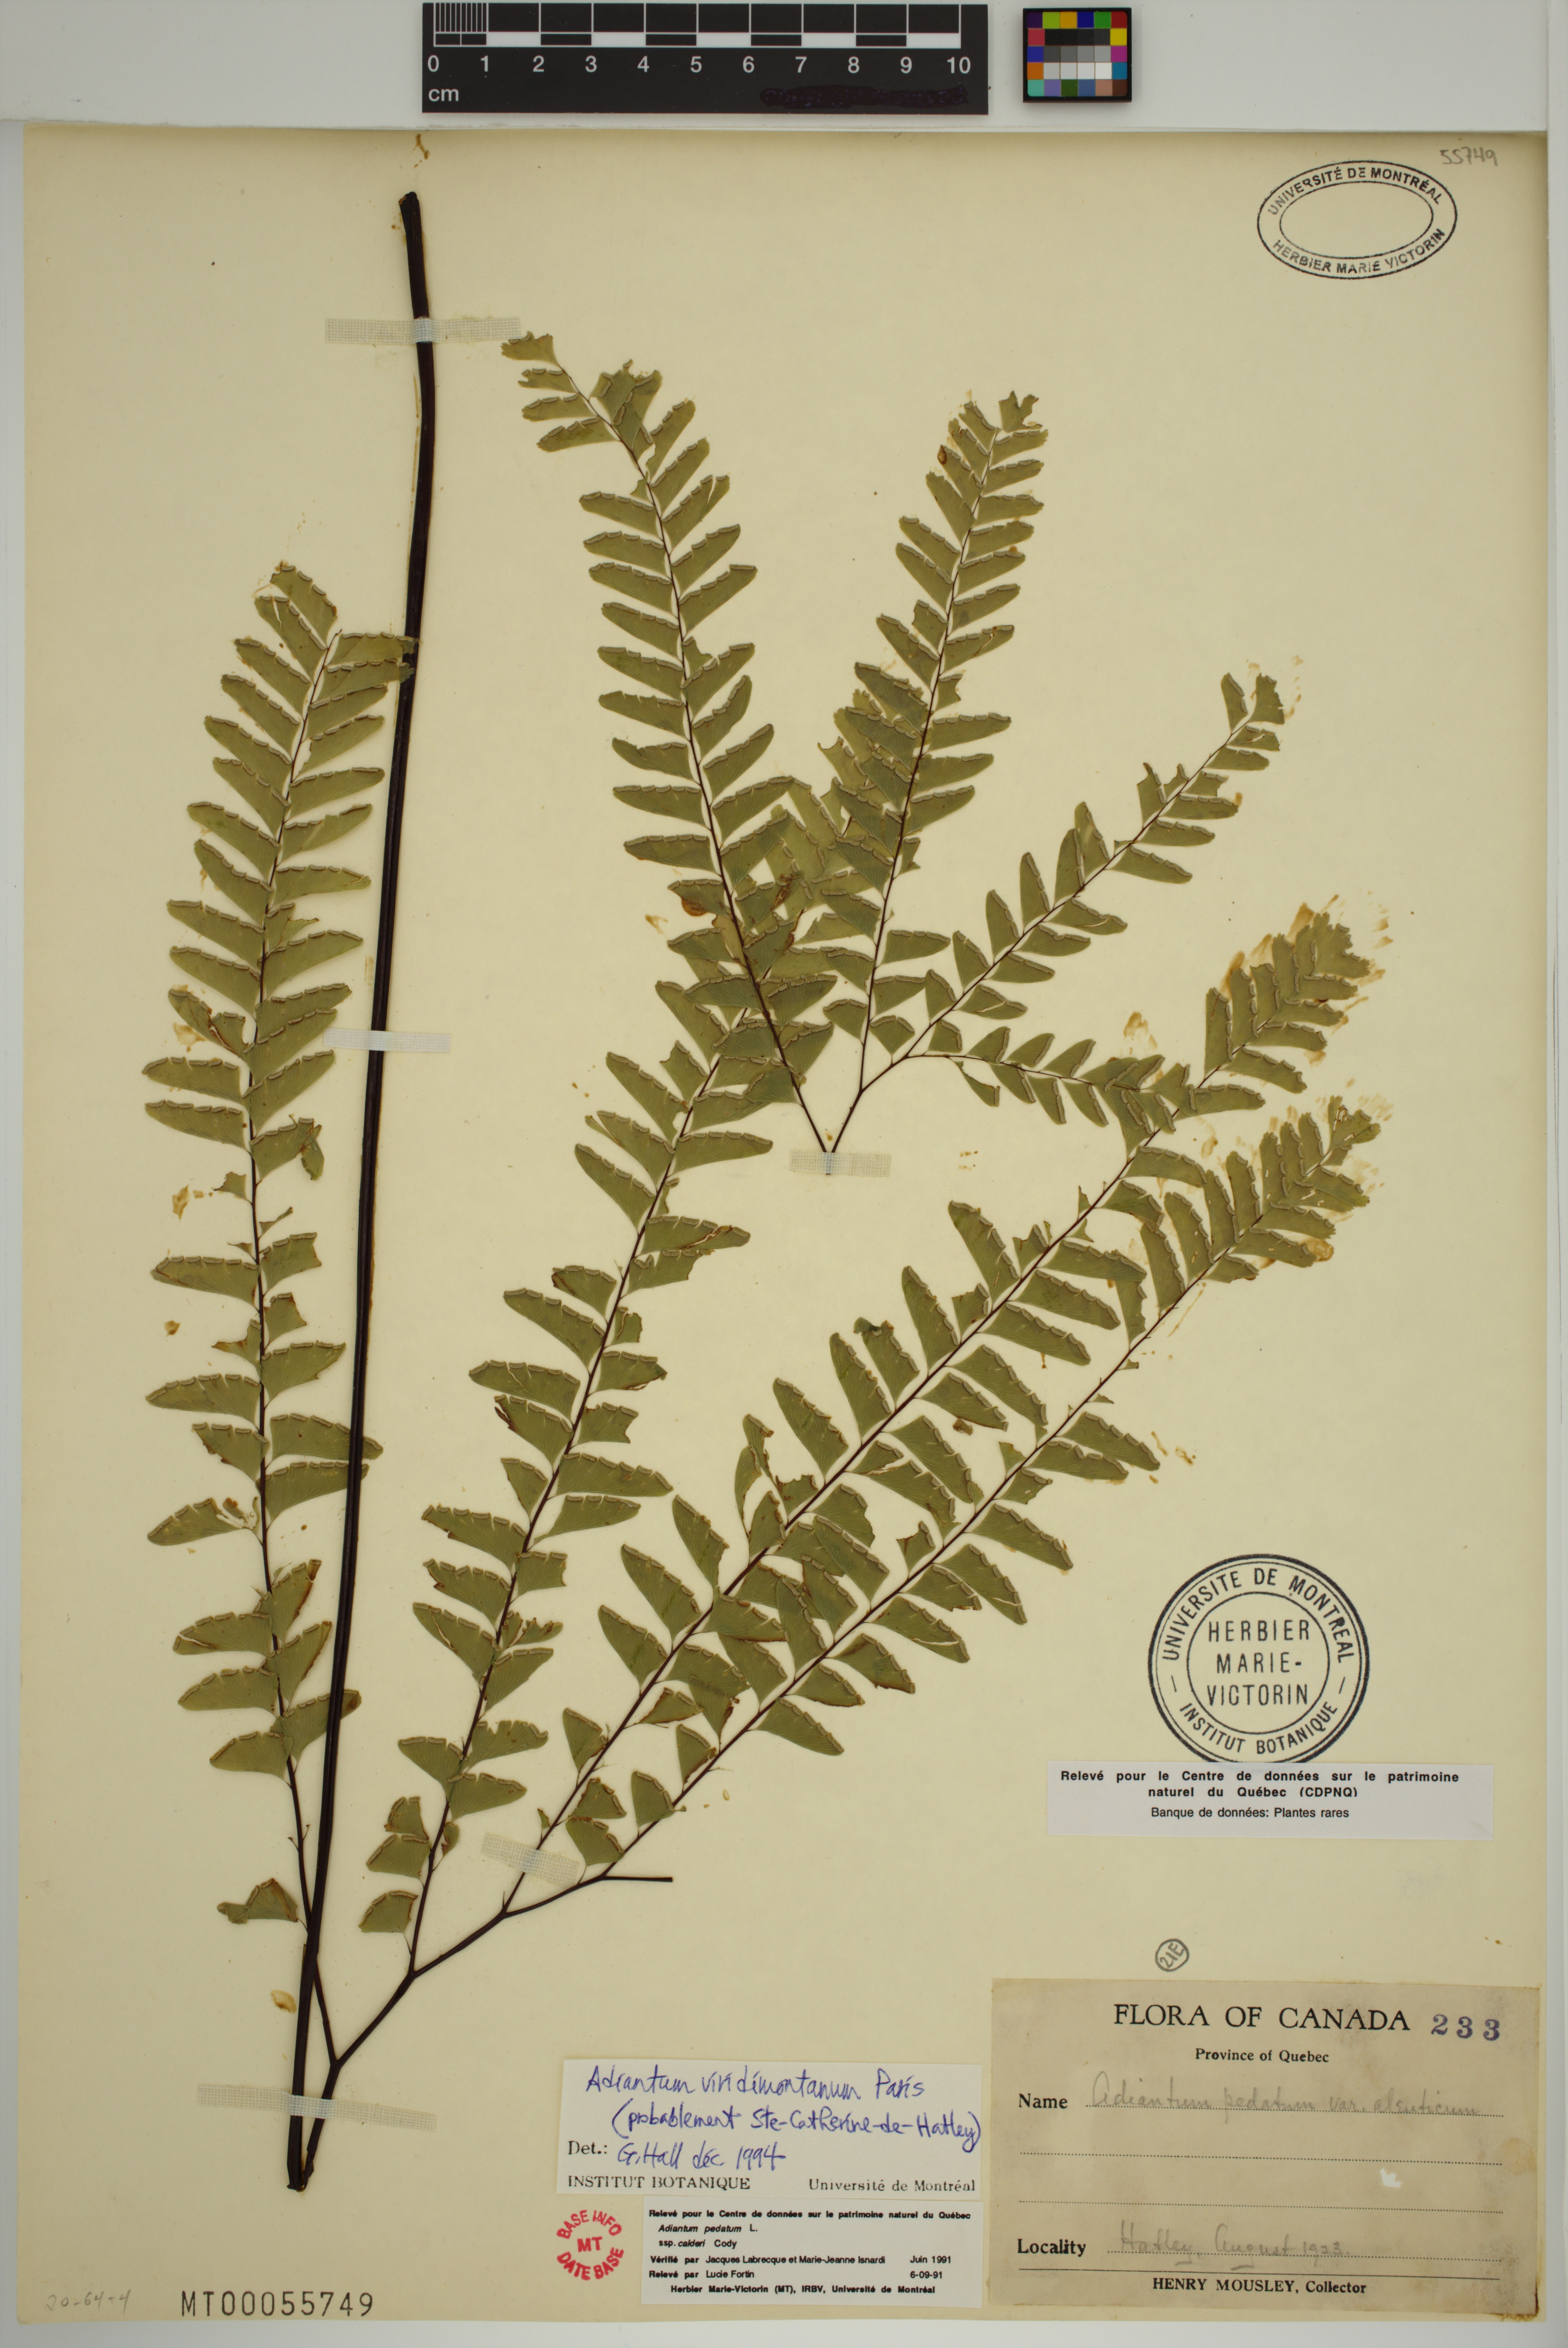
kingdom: Plantae
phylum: Tracheophyta
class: Polypodiopsida
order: Polypodiales
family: Pteridaceae
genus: Adiantum
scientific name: Adiantum viridimontanum
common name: Green mountain maidenhair
